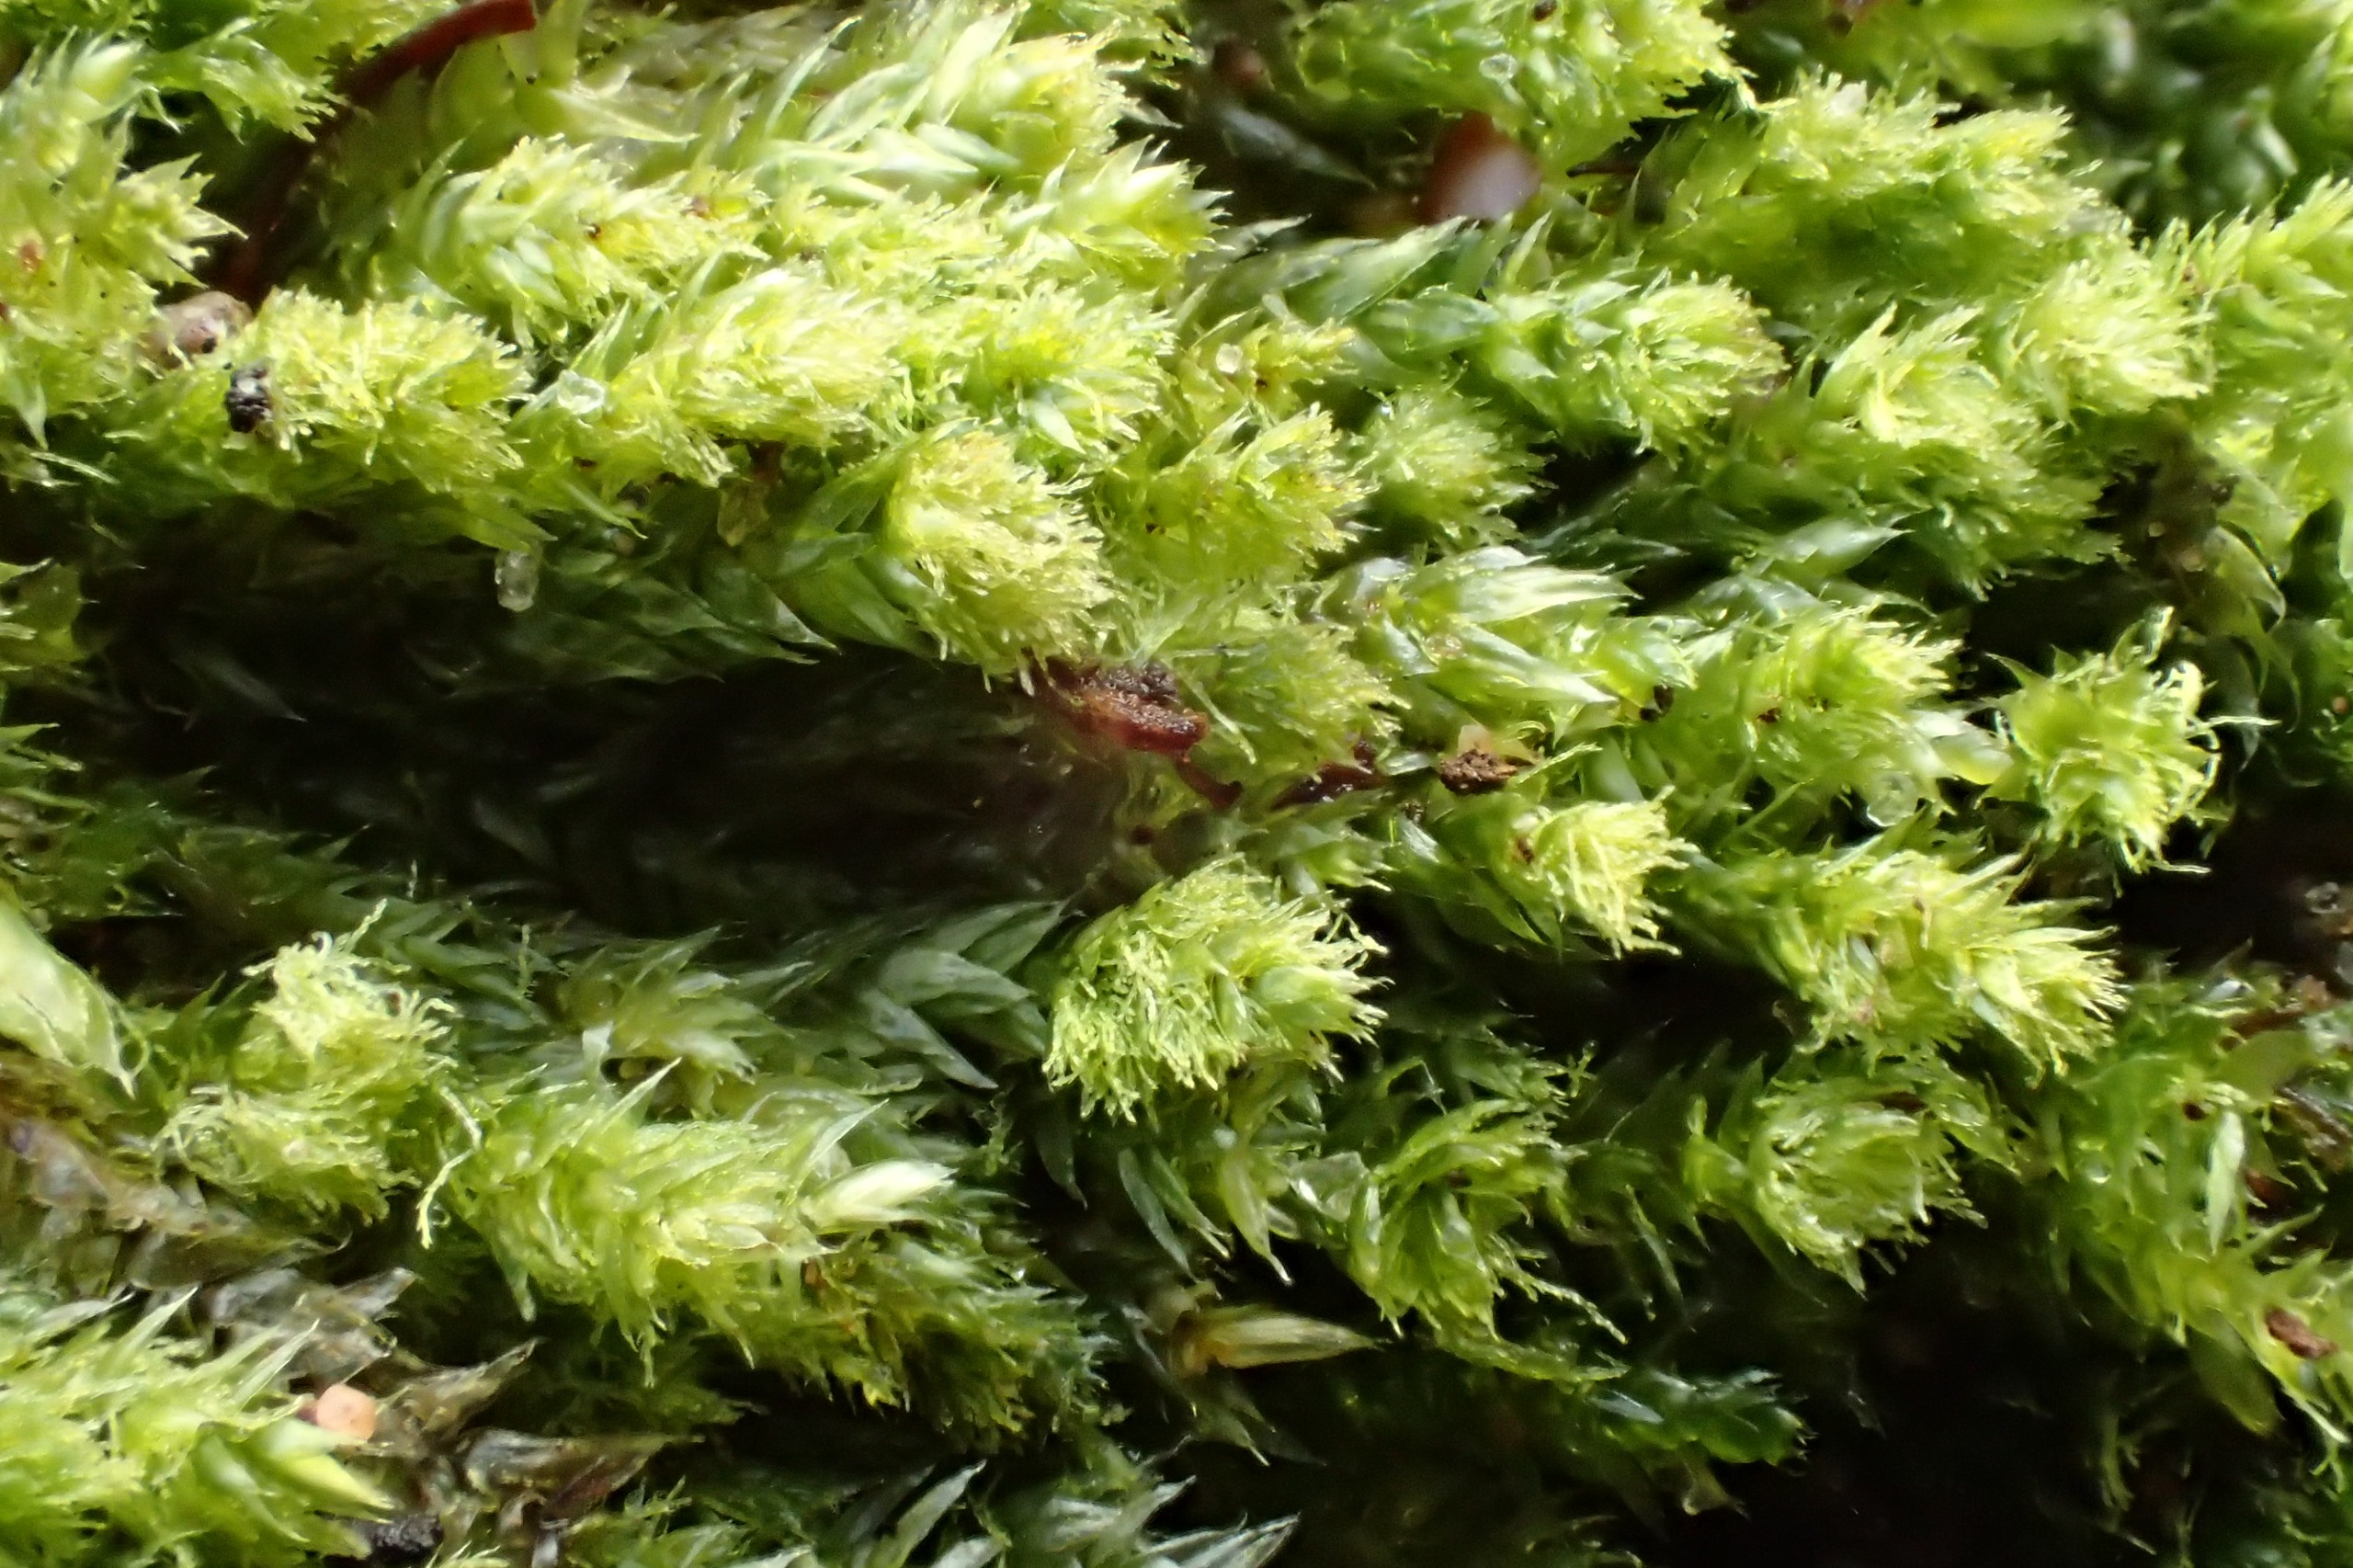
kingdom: Plantae
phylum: Bryophyta
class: Bryopsida
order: Hypnales
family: Plagiotheciaceae
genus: Pseudotaxiphyllum
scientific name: Pseudotaxiphyllum elegans
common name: Skinnende ynglegren
